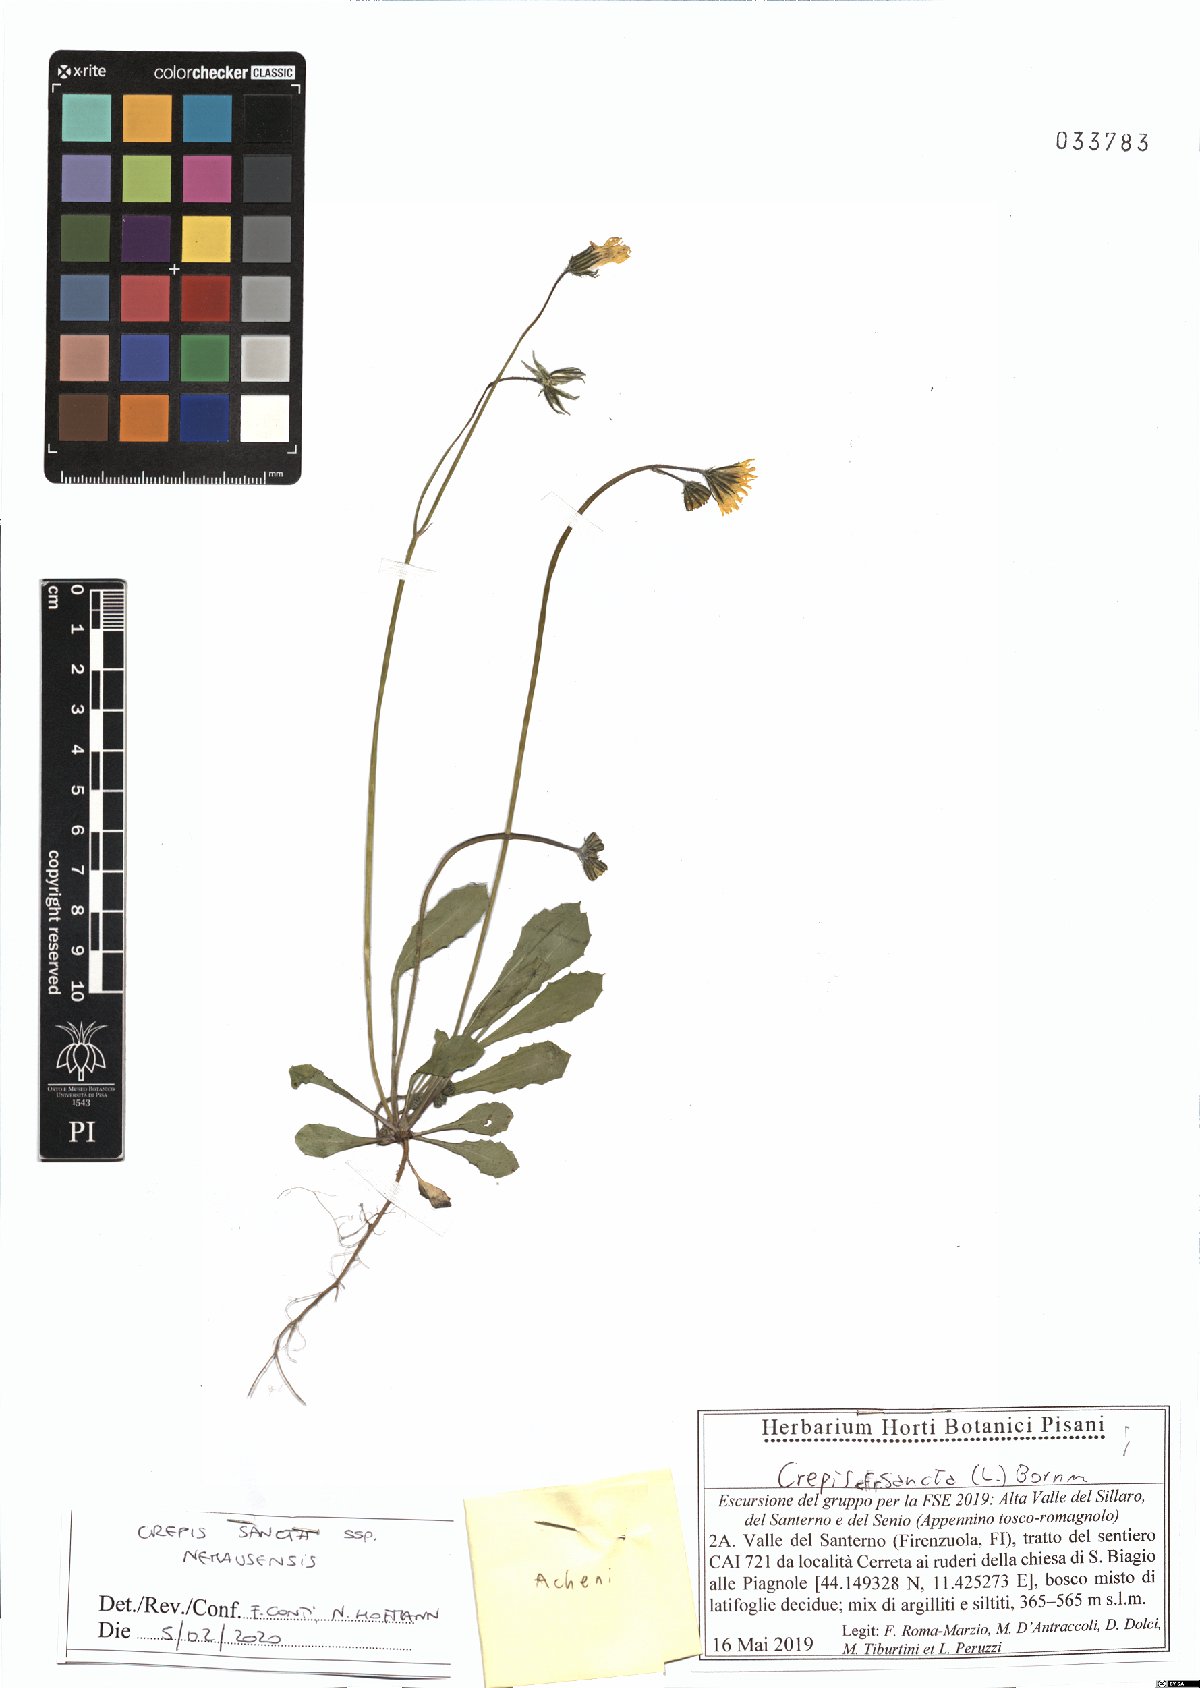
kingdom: Plantae
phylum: Tracheophyta
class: Magnoliopsida
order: Asterales
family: Asteraceae
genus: Crepis
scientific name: Crepis sancta
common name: Hawk's-beard
